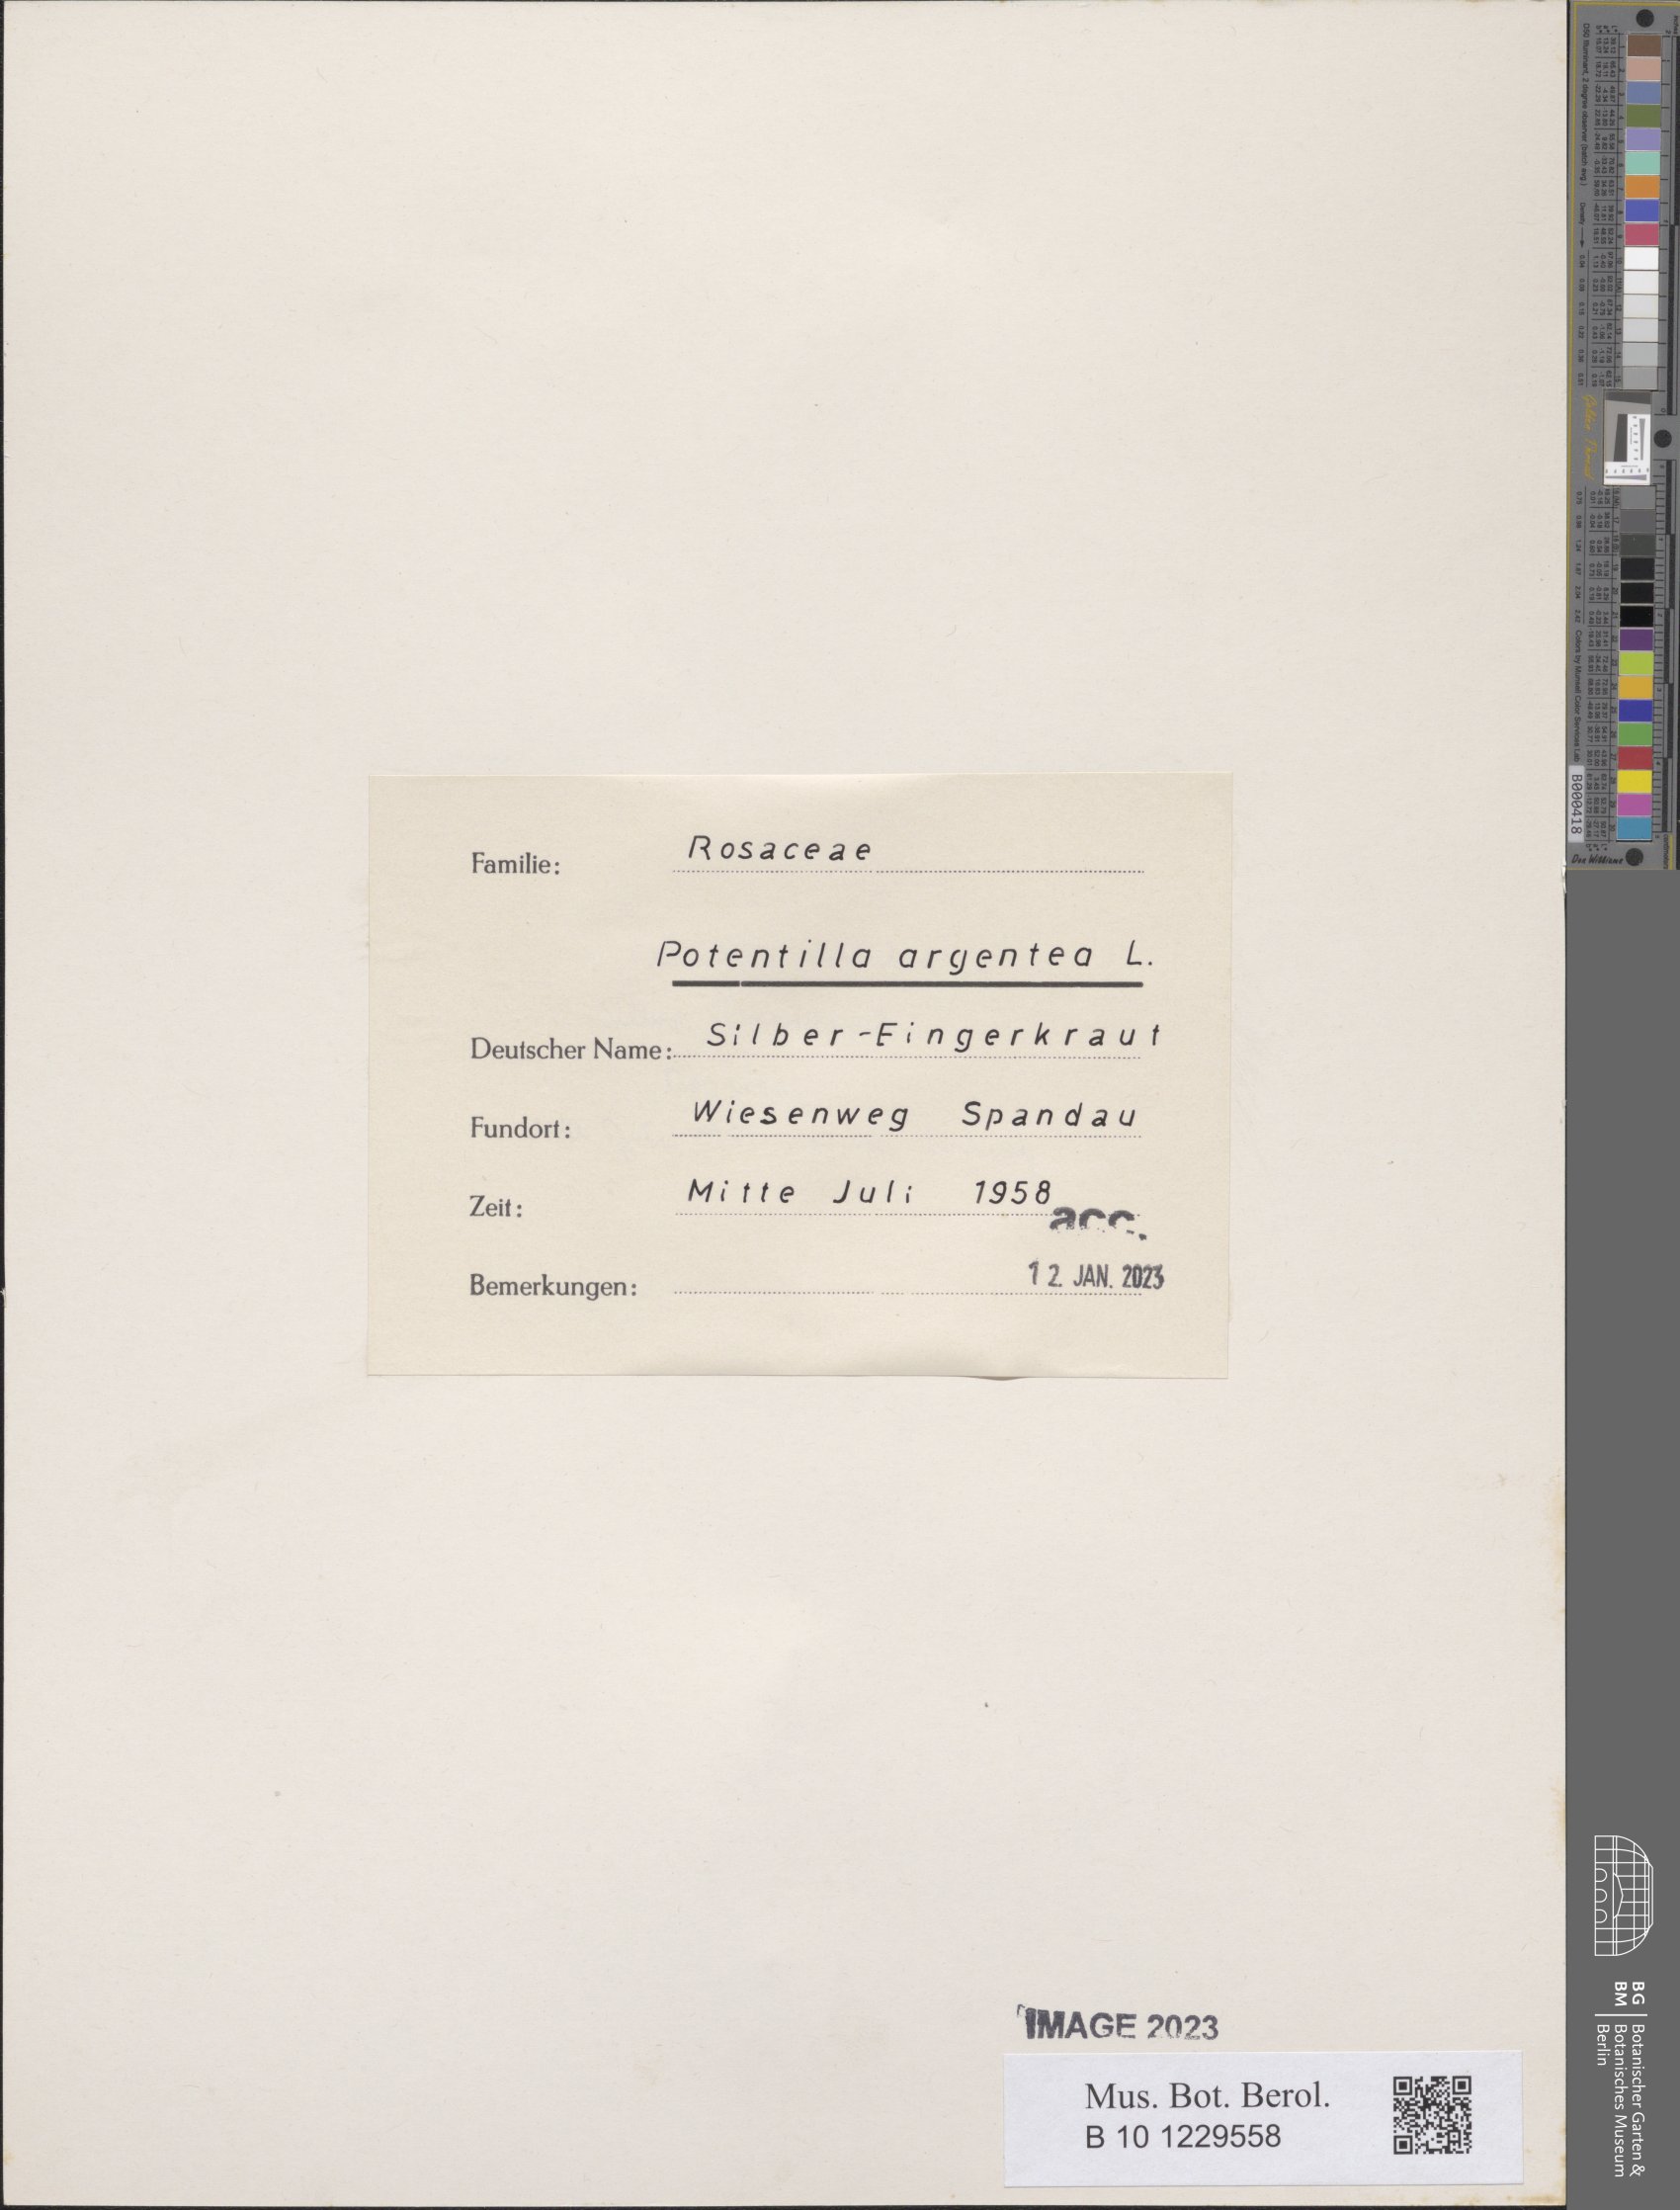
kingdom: Plantae
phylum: Tracheophyta
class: Magnoliopsida
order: Rosales
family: Rosaceae
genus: Potentilla
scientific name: Potentilla argentea
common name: Hoary cinquefoil
